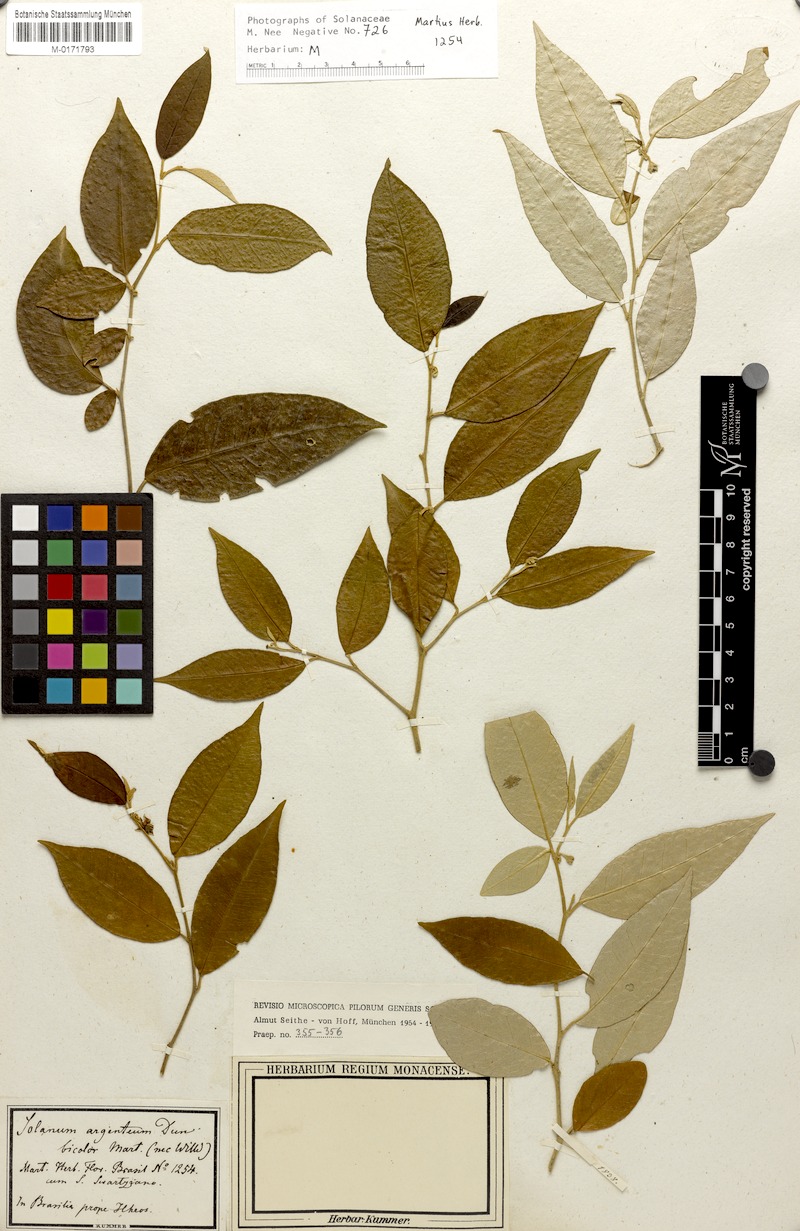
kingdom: Plantae
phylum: Tracheophyta
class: Magnoliopsida
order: Solanales
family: Solanaceae
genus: Solanum
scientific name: Solanum argenteum
